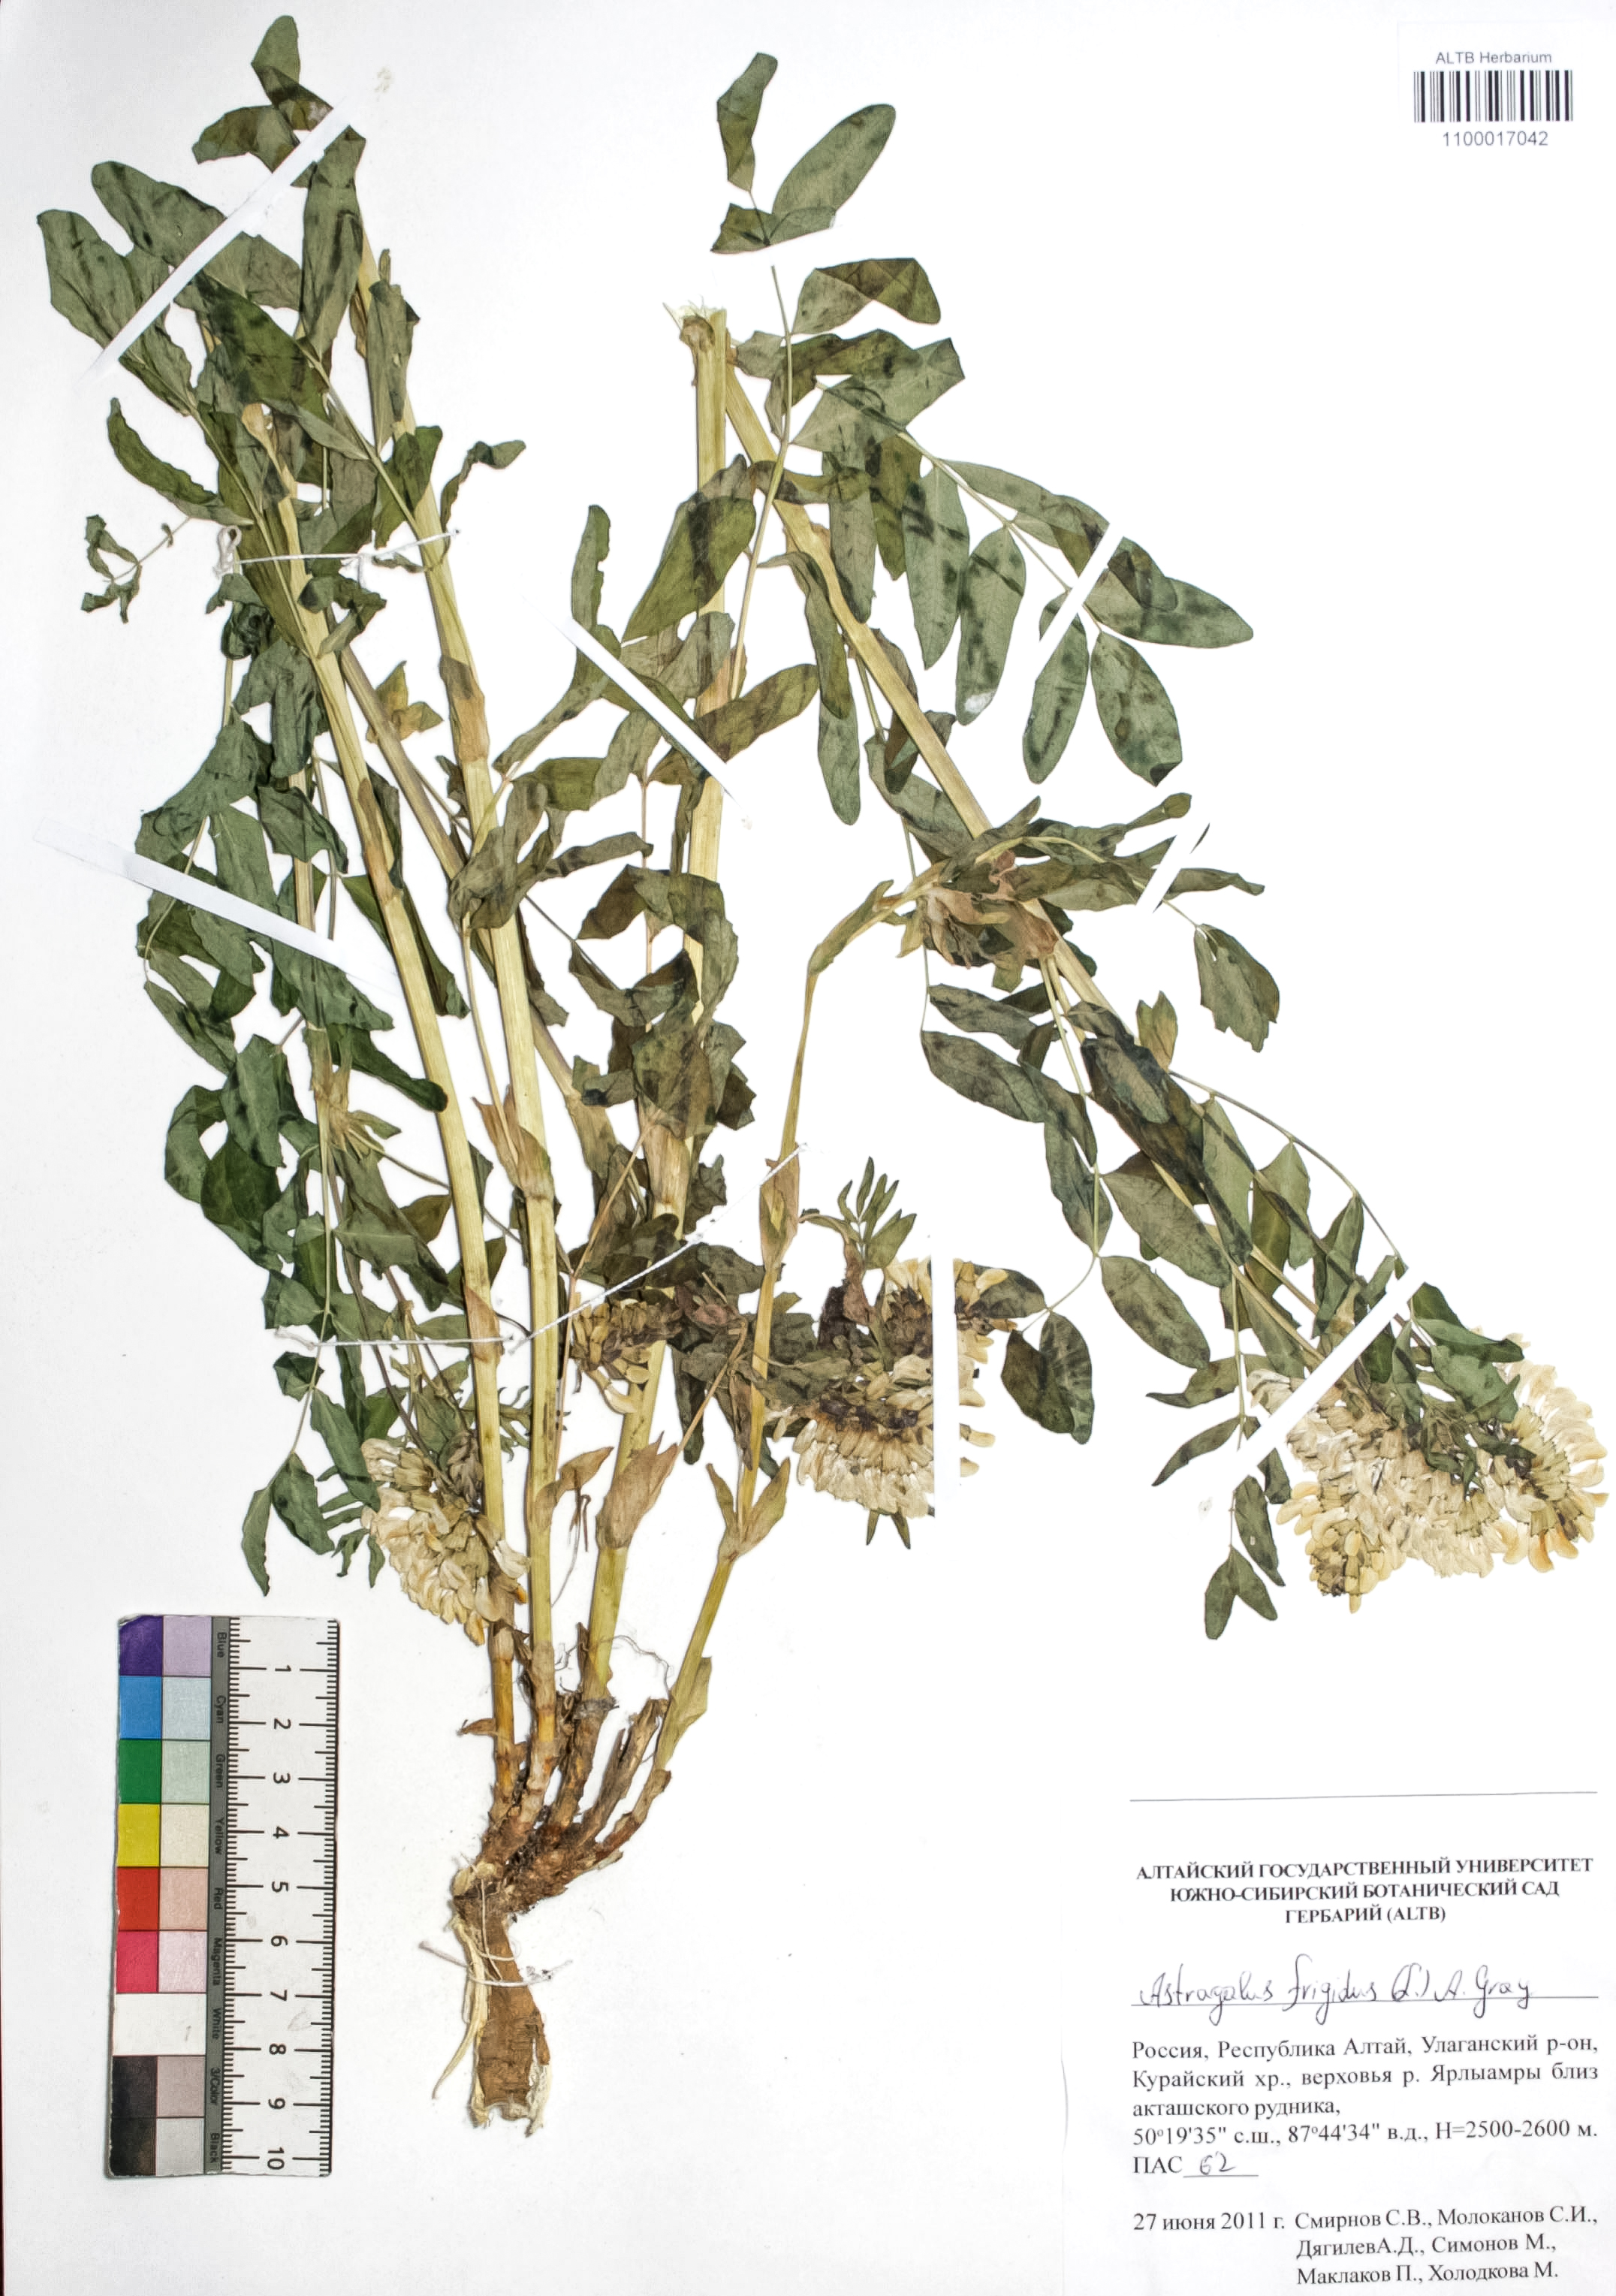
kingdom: Plantae
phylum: Tracheophyta
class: Magnoliopsida
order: Fabales
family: Fabaceae
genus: Astragalus
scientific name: Astragalus frigidus
